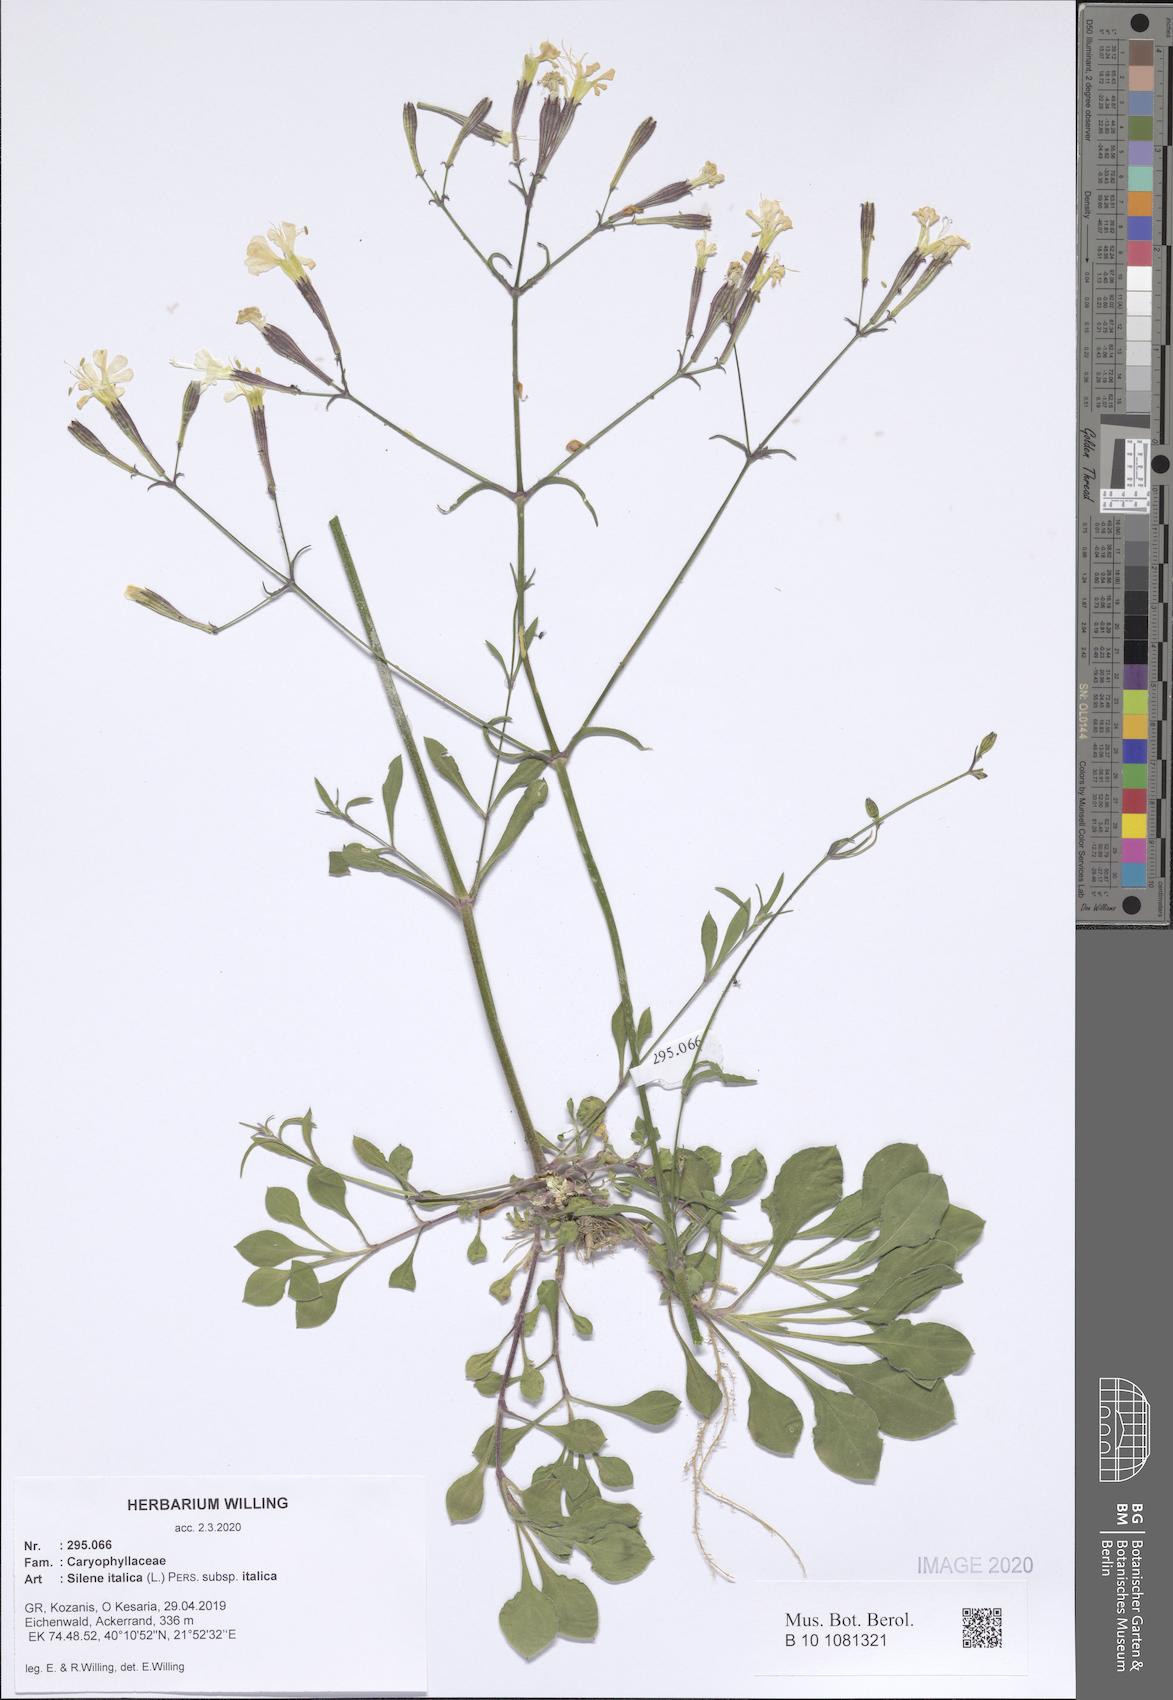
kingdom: Plantae
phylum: Tracheophyta
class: Magnoliopsida
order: Caryophyllales
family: Caryophyllaceae
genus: Silene
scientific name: Silene italica
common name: Italian catchfly
